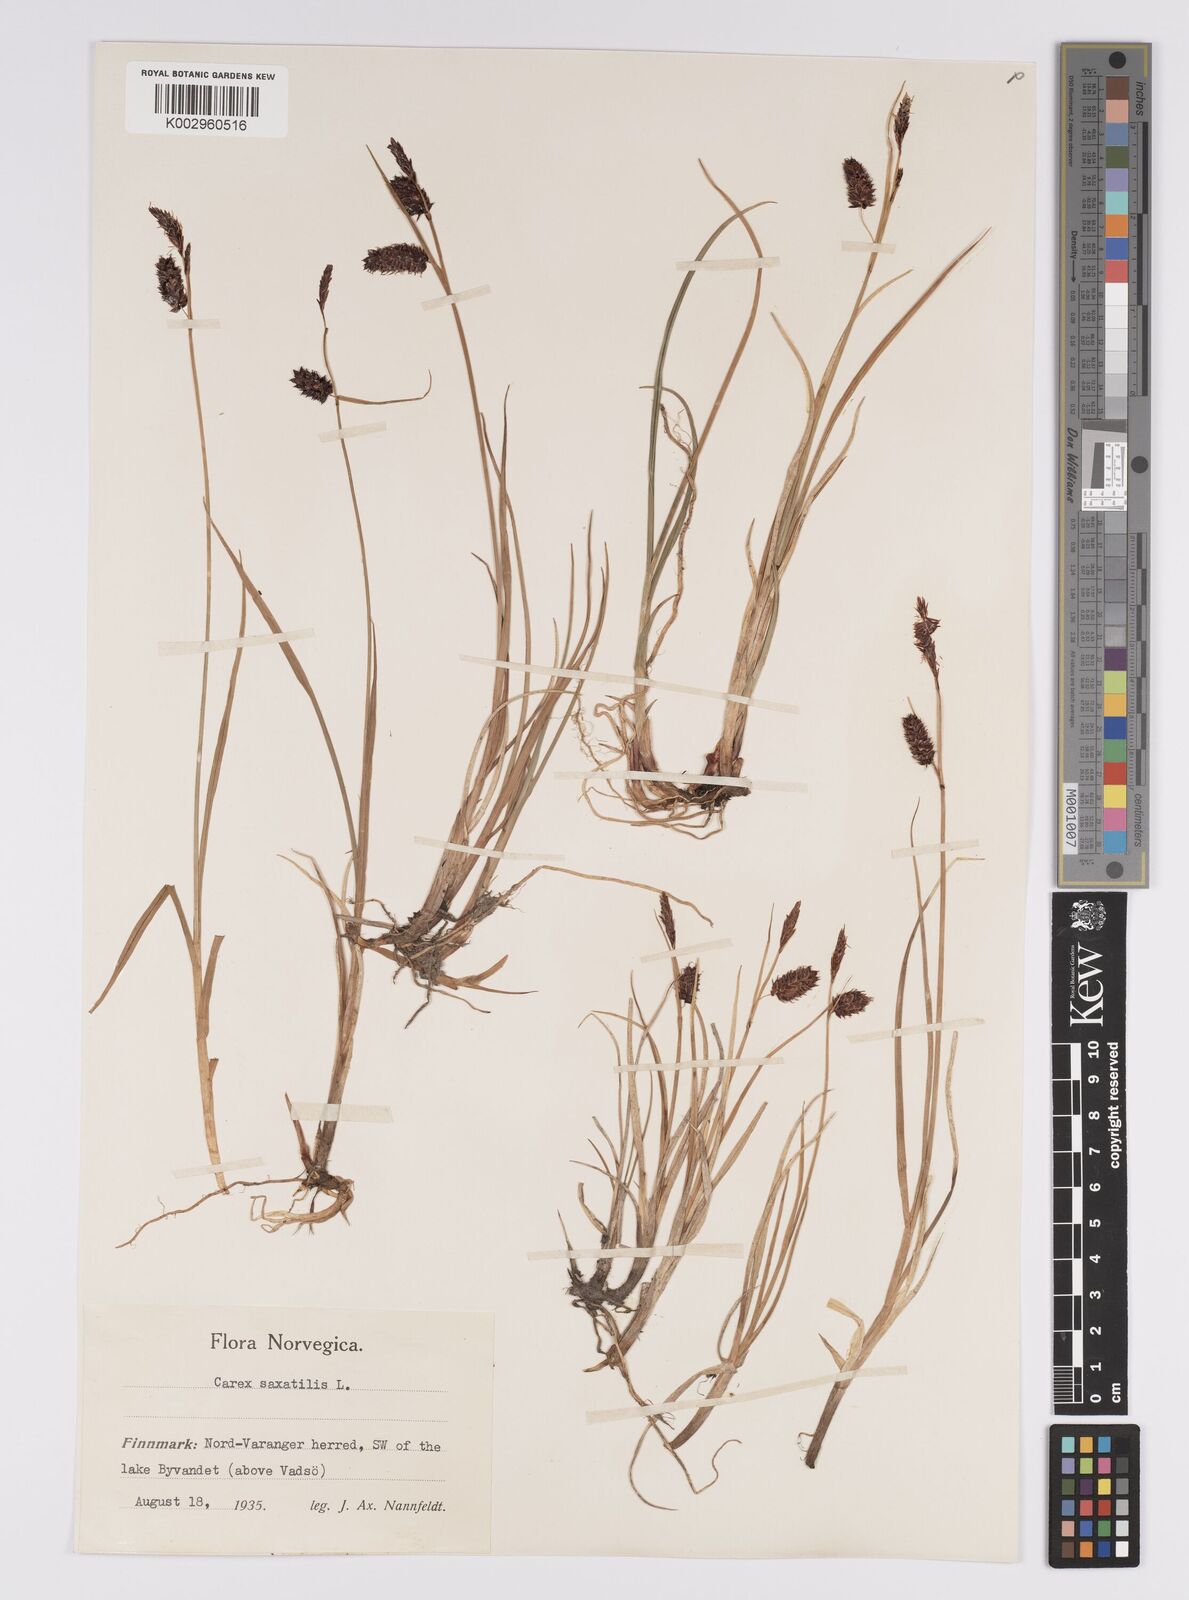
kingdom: Plantae
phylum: Tracheophyta
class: Liliopsida
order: Poales
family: Cyperaceae
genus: Carex
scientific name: Carex saxatilis
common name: Russet sedge
